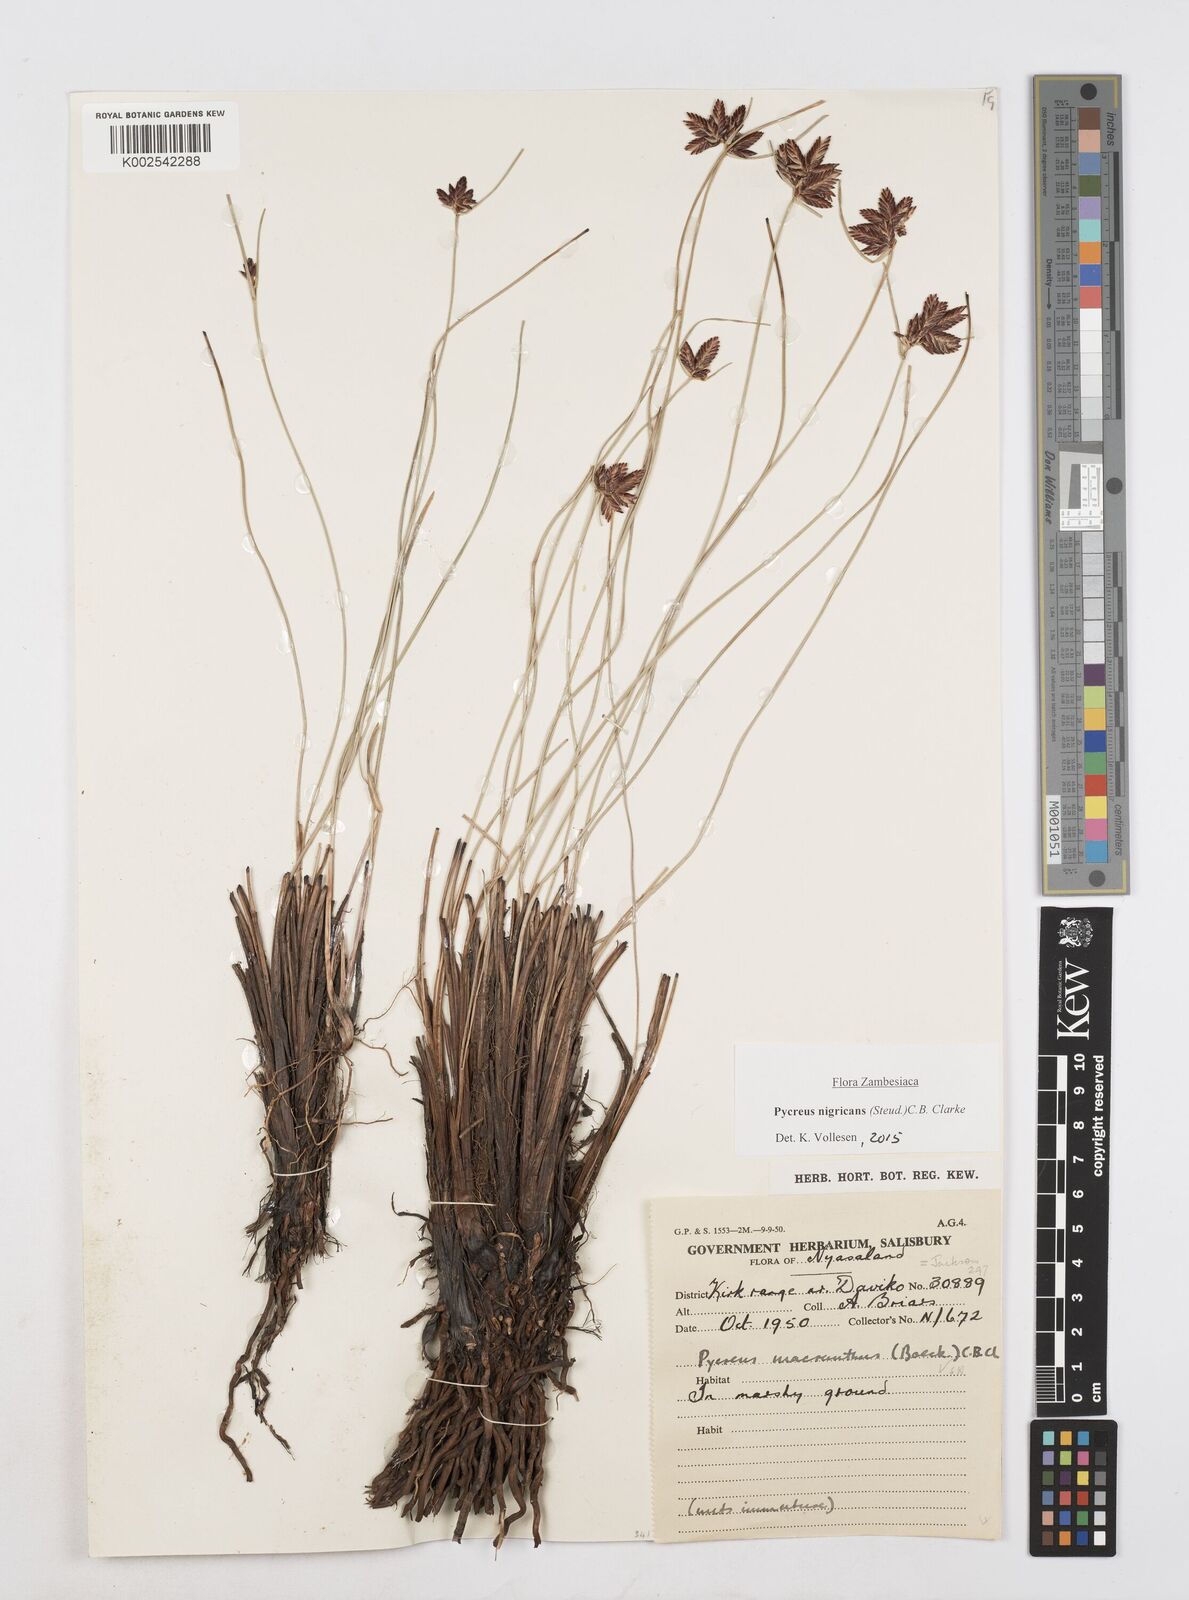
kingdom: Plantae
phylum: Tracheophyta
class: Liliopsida
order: Poales
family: Cyperaceae
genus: Cyperus
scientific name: Cyperus nigricans
